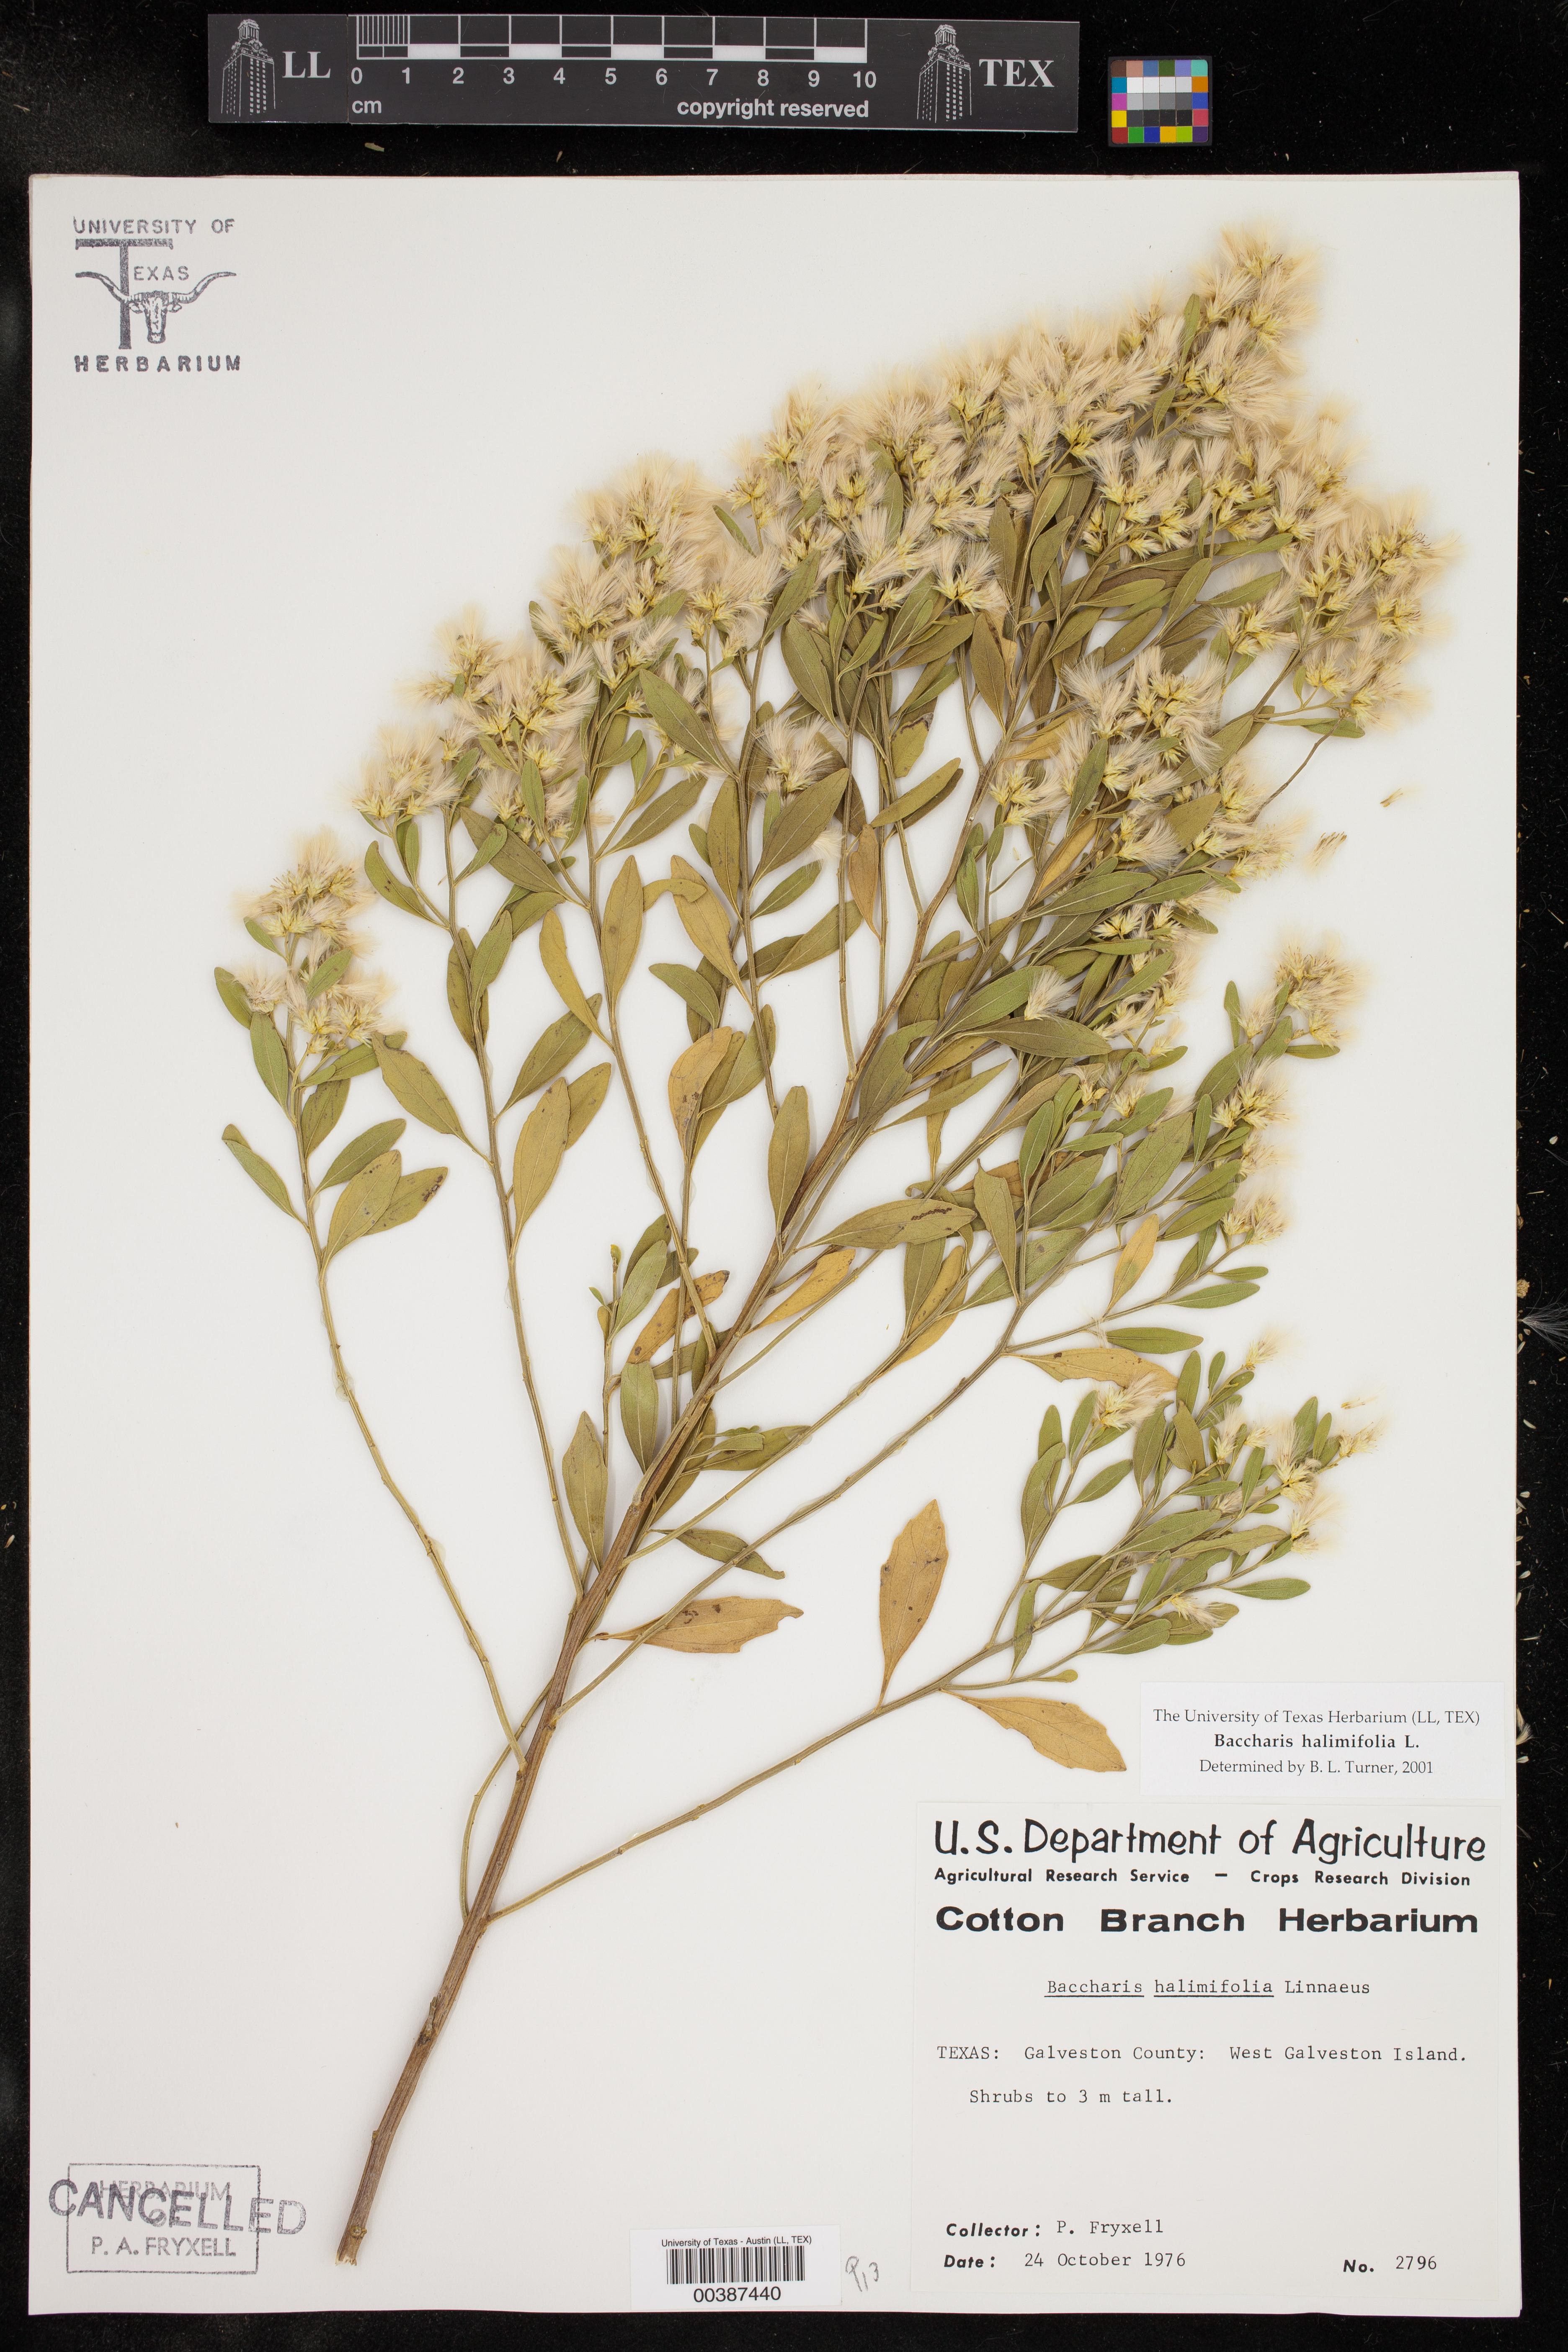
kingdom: Plantae
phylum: Tracheophyta
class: Magnoliopsida
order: Asterales
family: Asteraceae
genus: Baccharis
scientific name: Baccharis halimifolia
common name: Eastern baccharis
